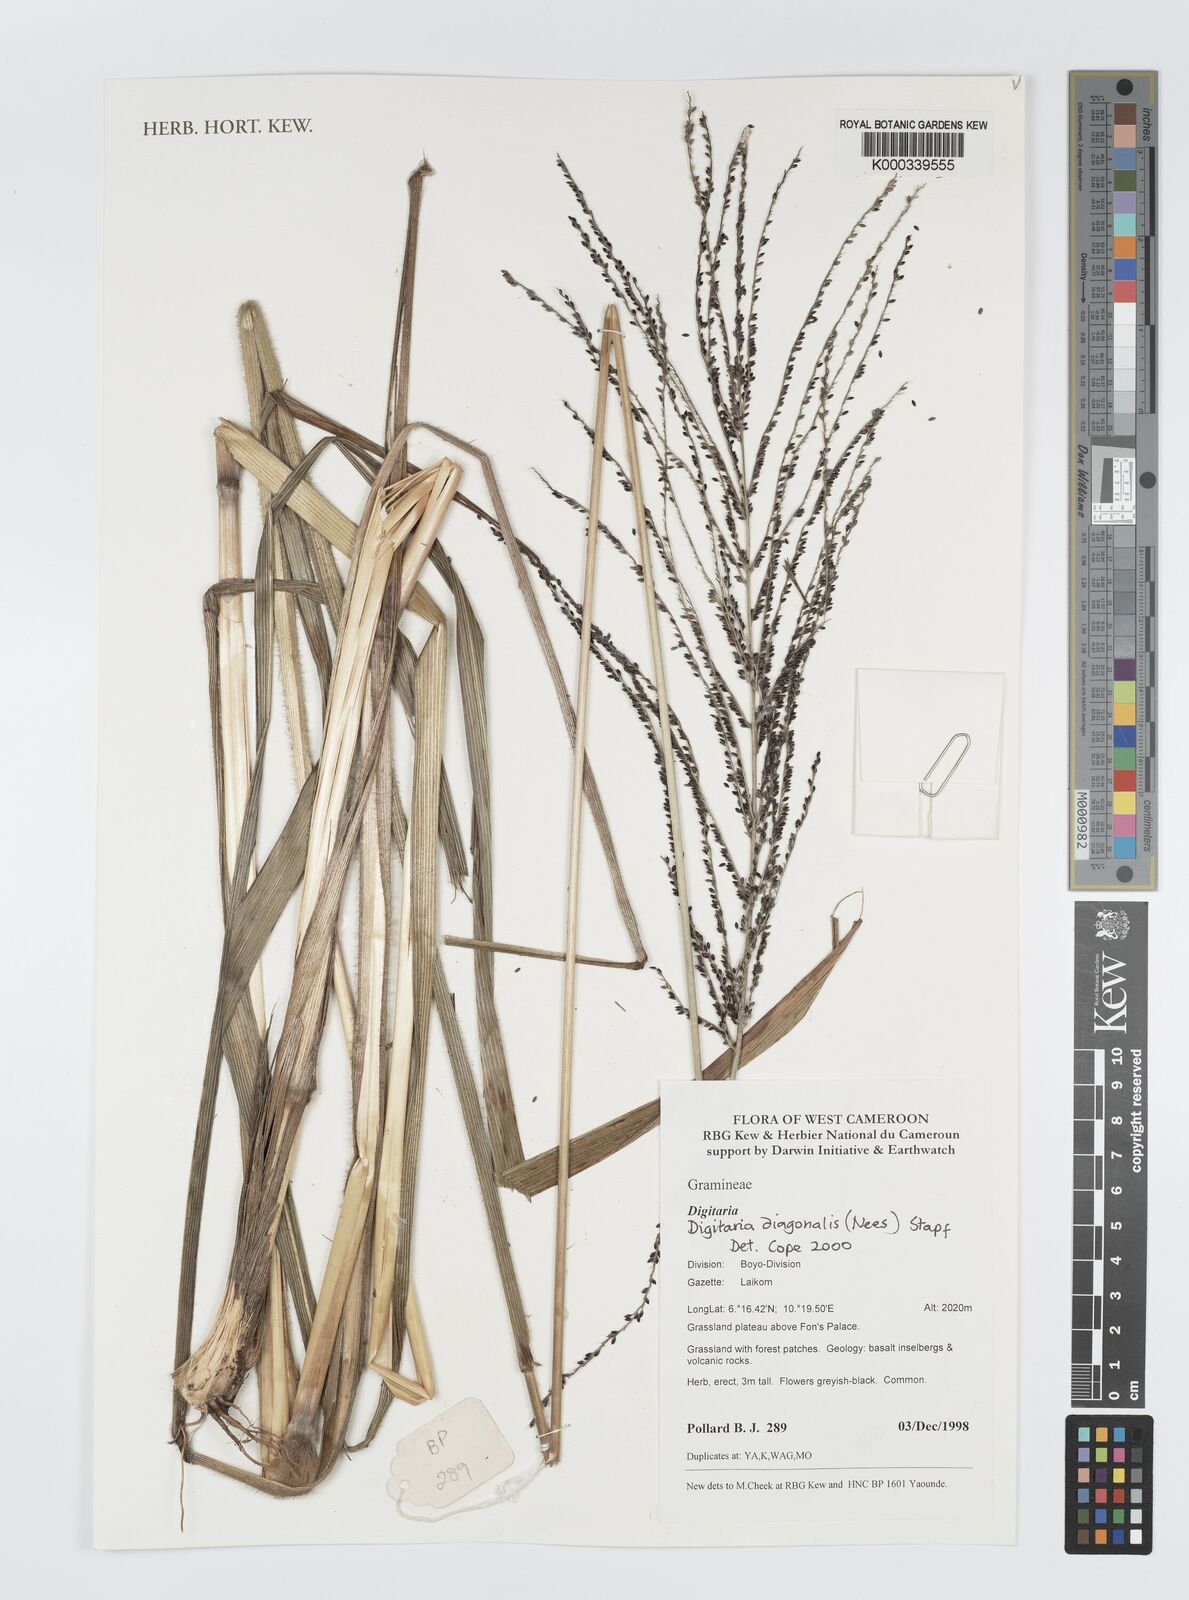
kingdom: Plantae
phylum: Tracheophyta
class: Liliopsida
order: Poales
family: Poaceae
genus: Digitaria
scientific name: Digitaria diagonalis
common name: Brown-seed finger grass
